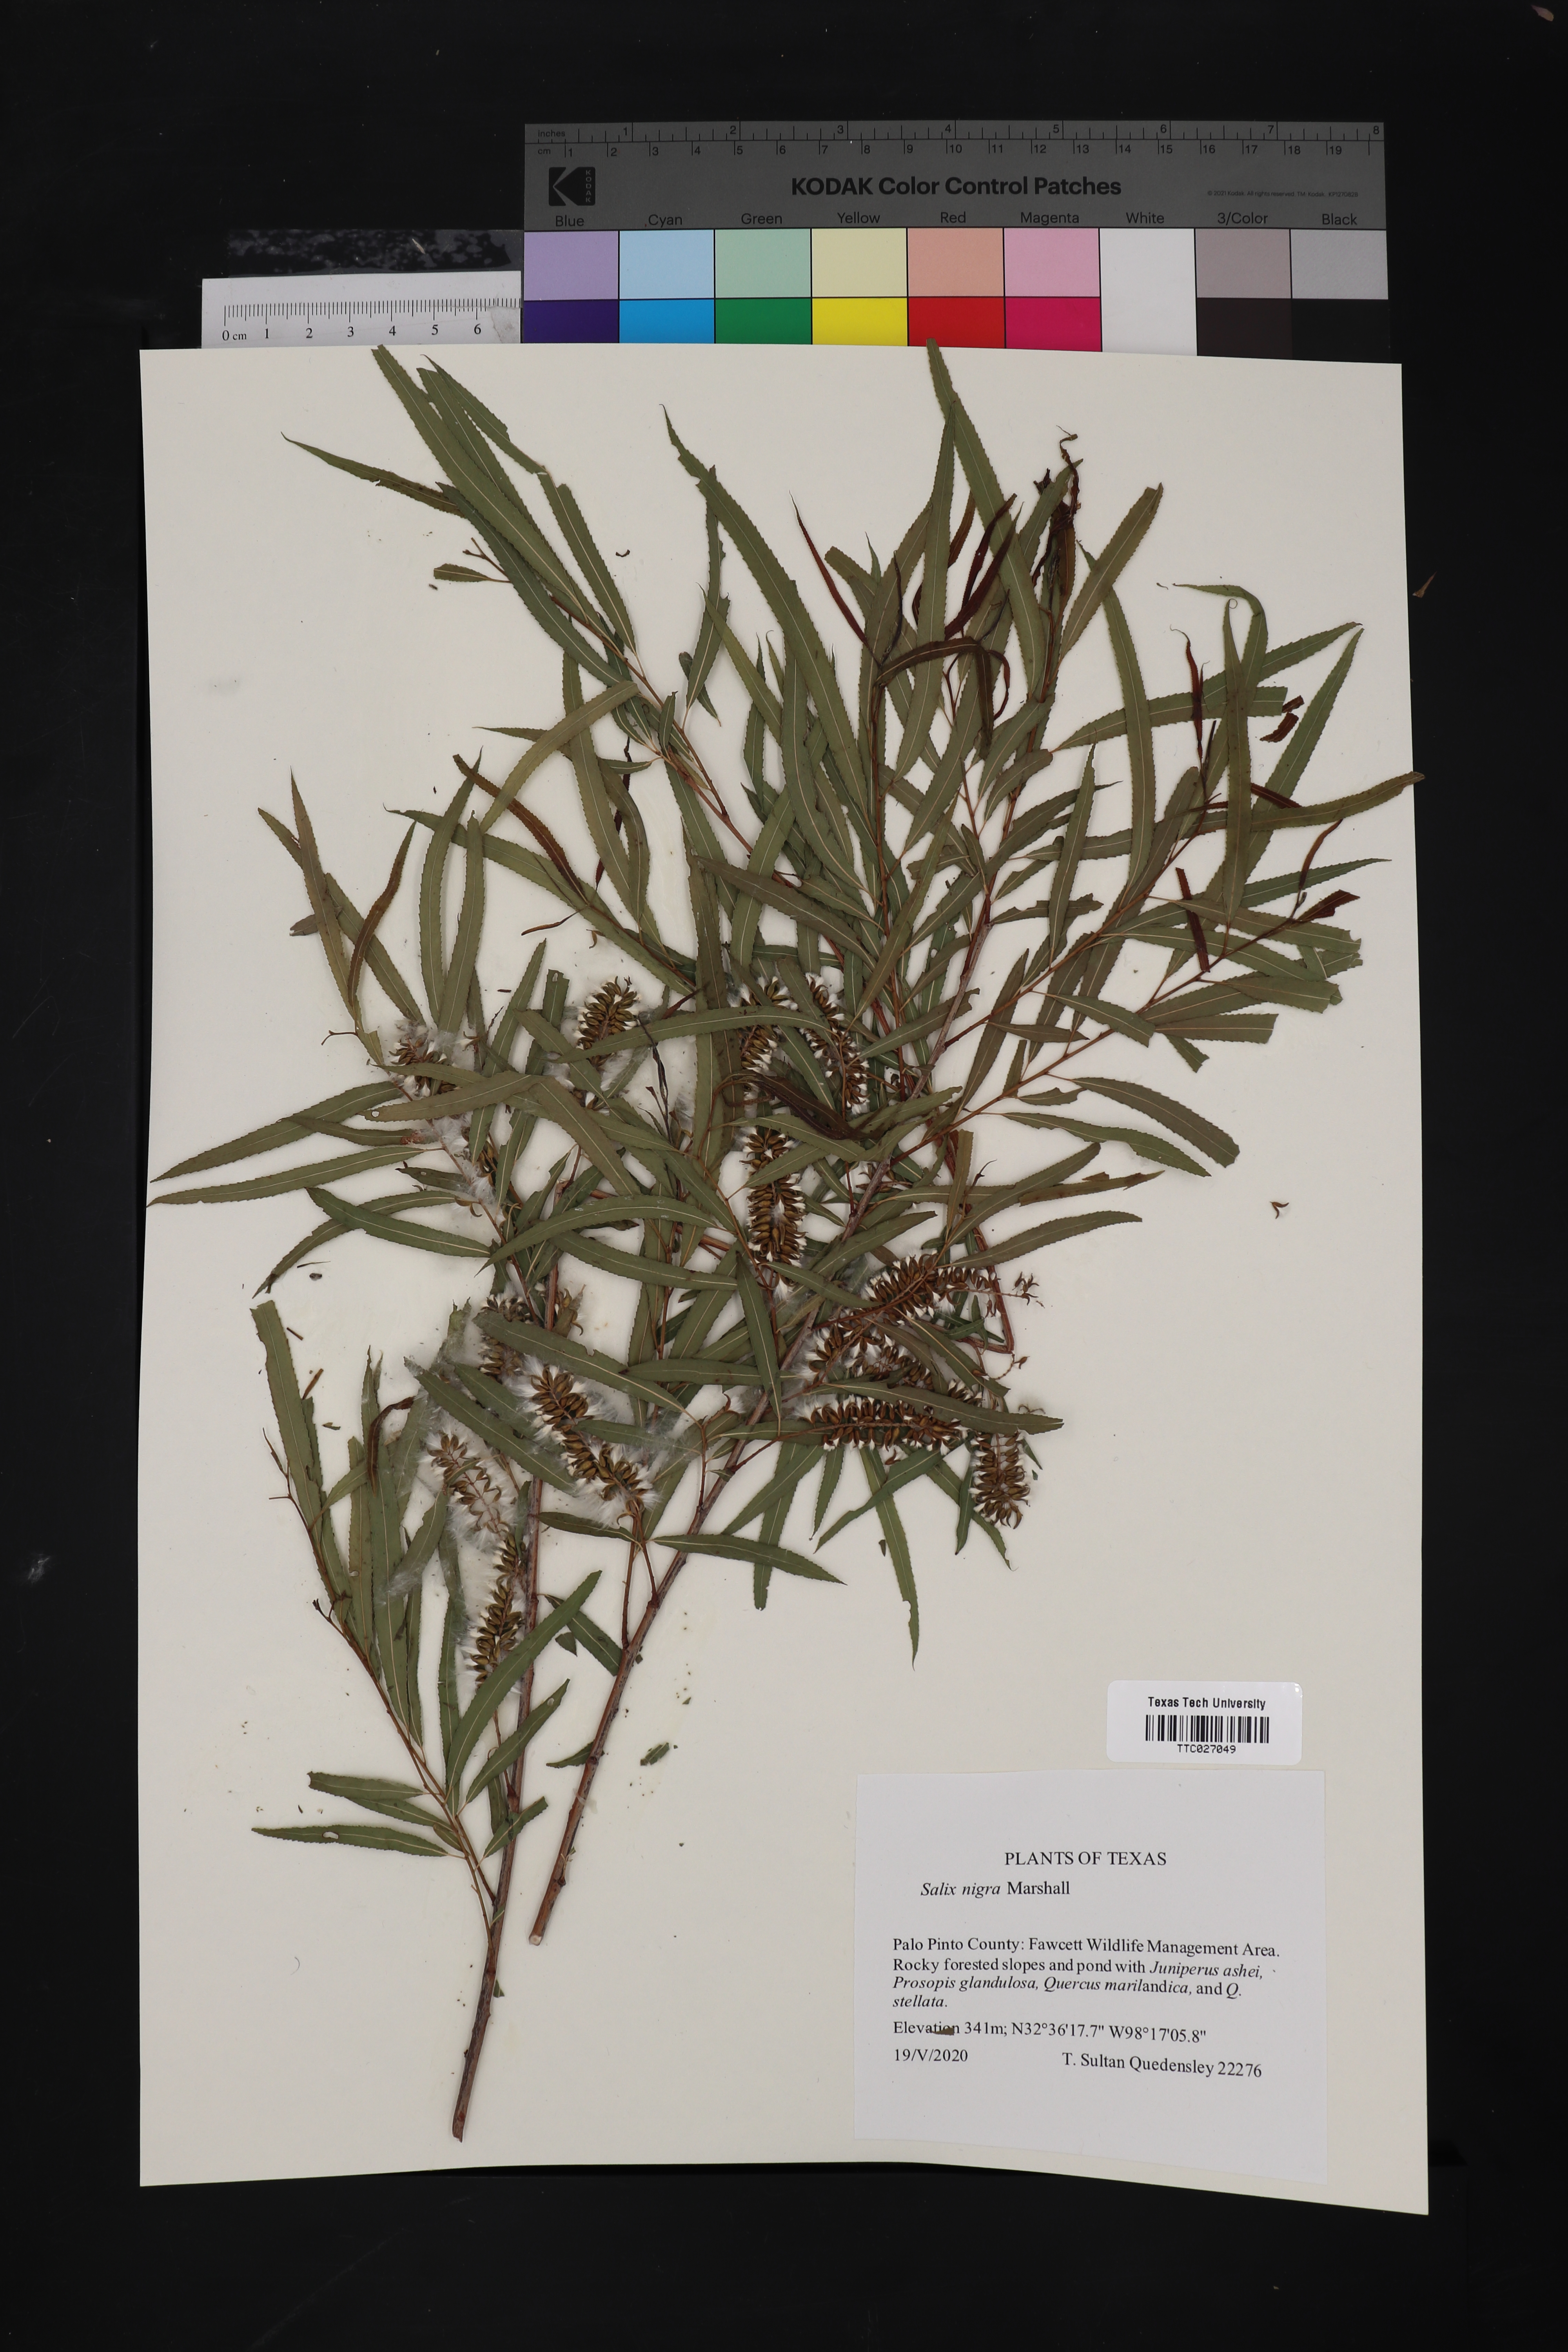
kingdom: Plantae
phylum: Tracheophyta
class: Magnoliopsida
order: Malpighiales
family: Salicaceae
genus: Salix
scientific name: Salix nigra
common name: Black willow
